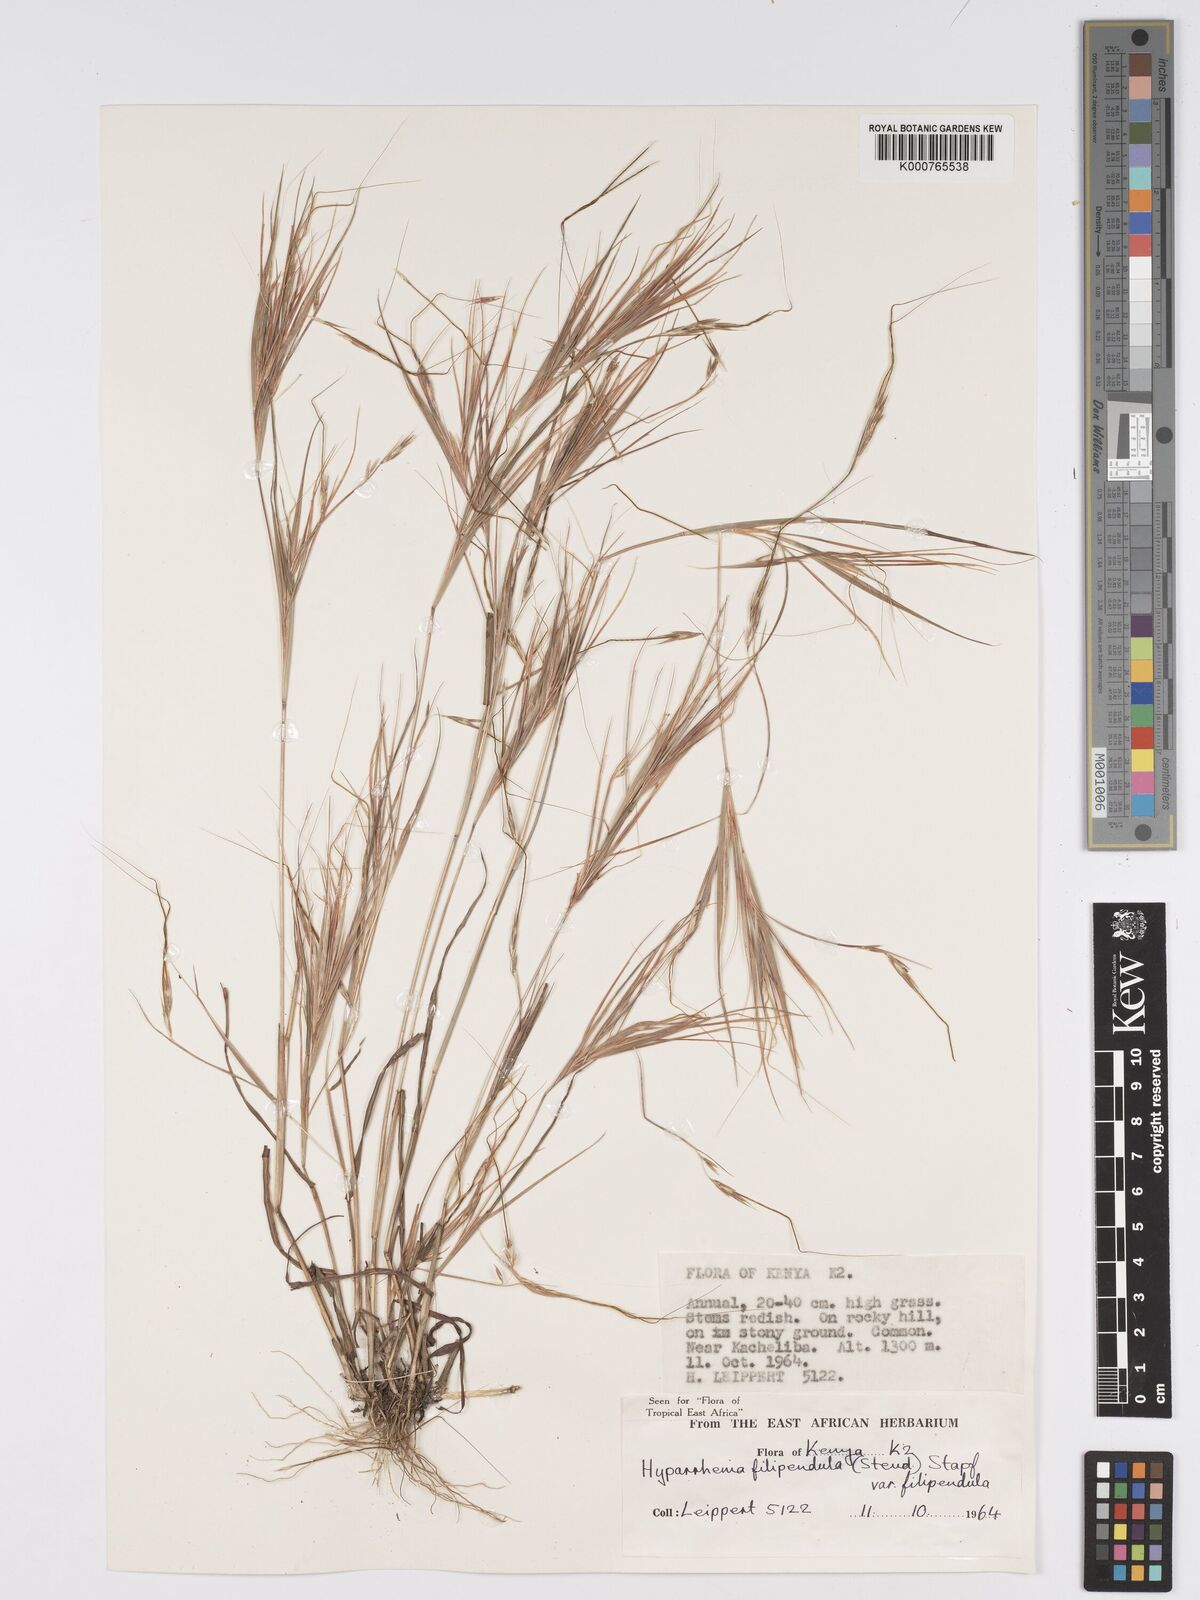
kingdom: Plantae
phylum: Tracheophyta
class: Liliopsida
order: Poales
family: Poaceae
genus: Hyparrhenia
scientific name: Hyparrhenia filipendula
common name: Tambookie grass
